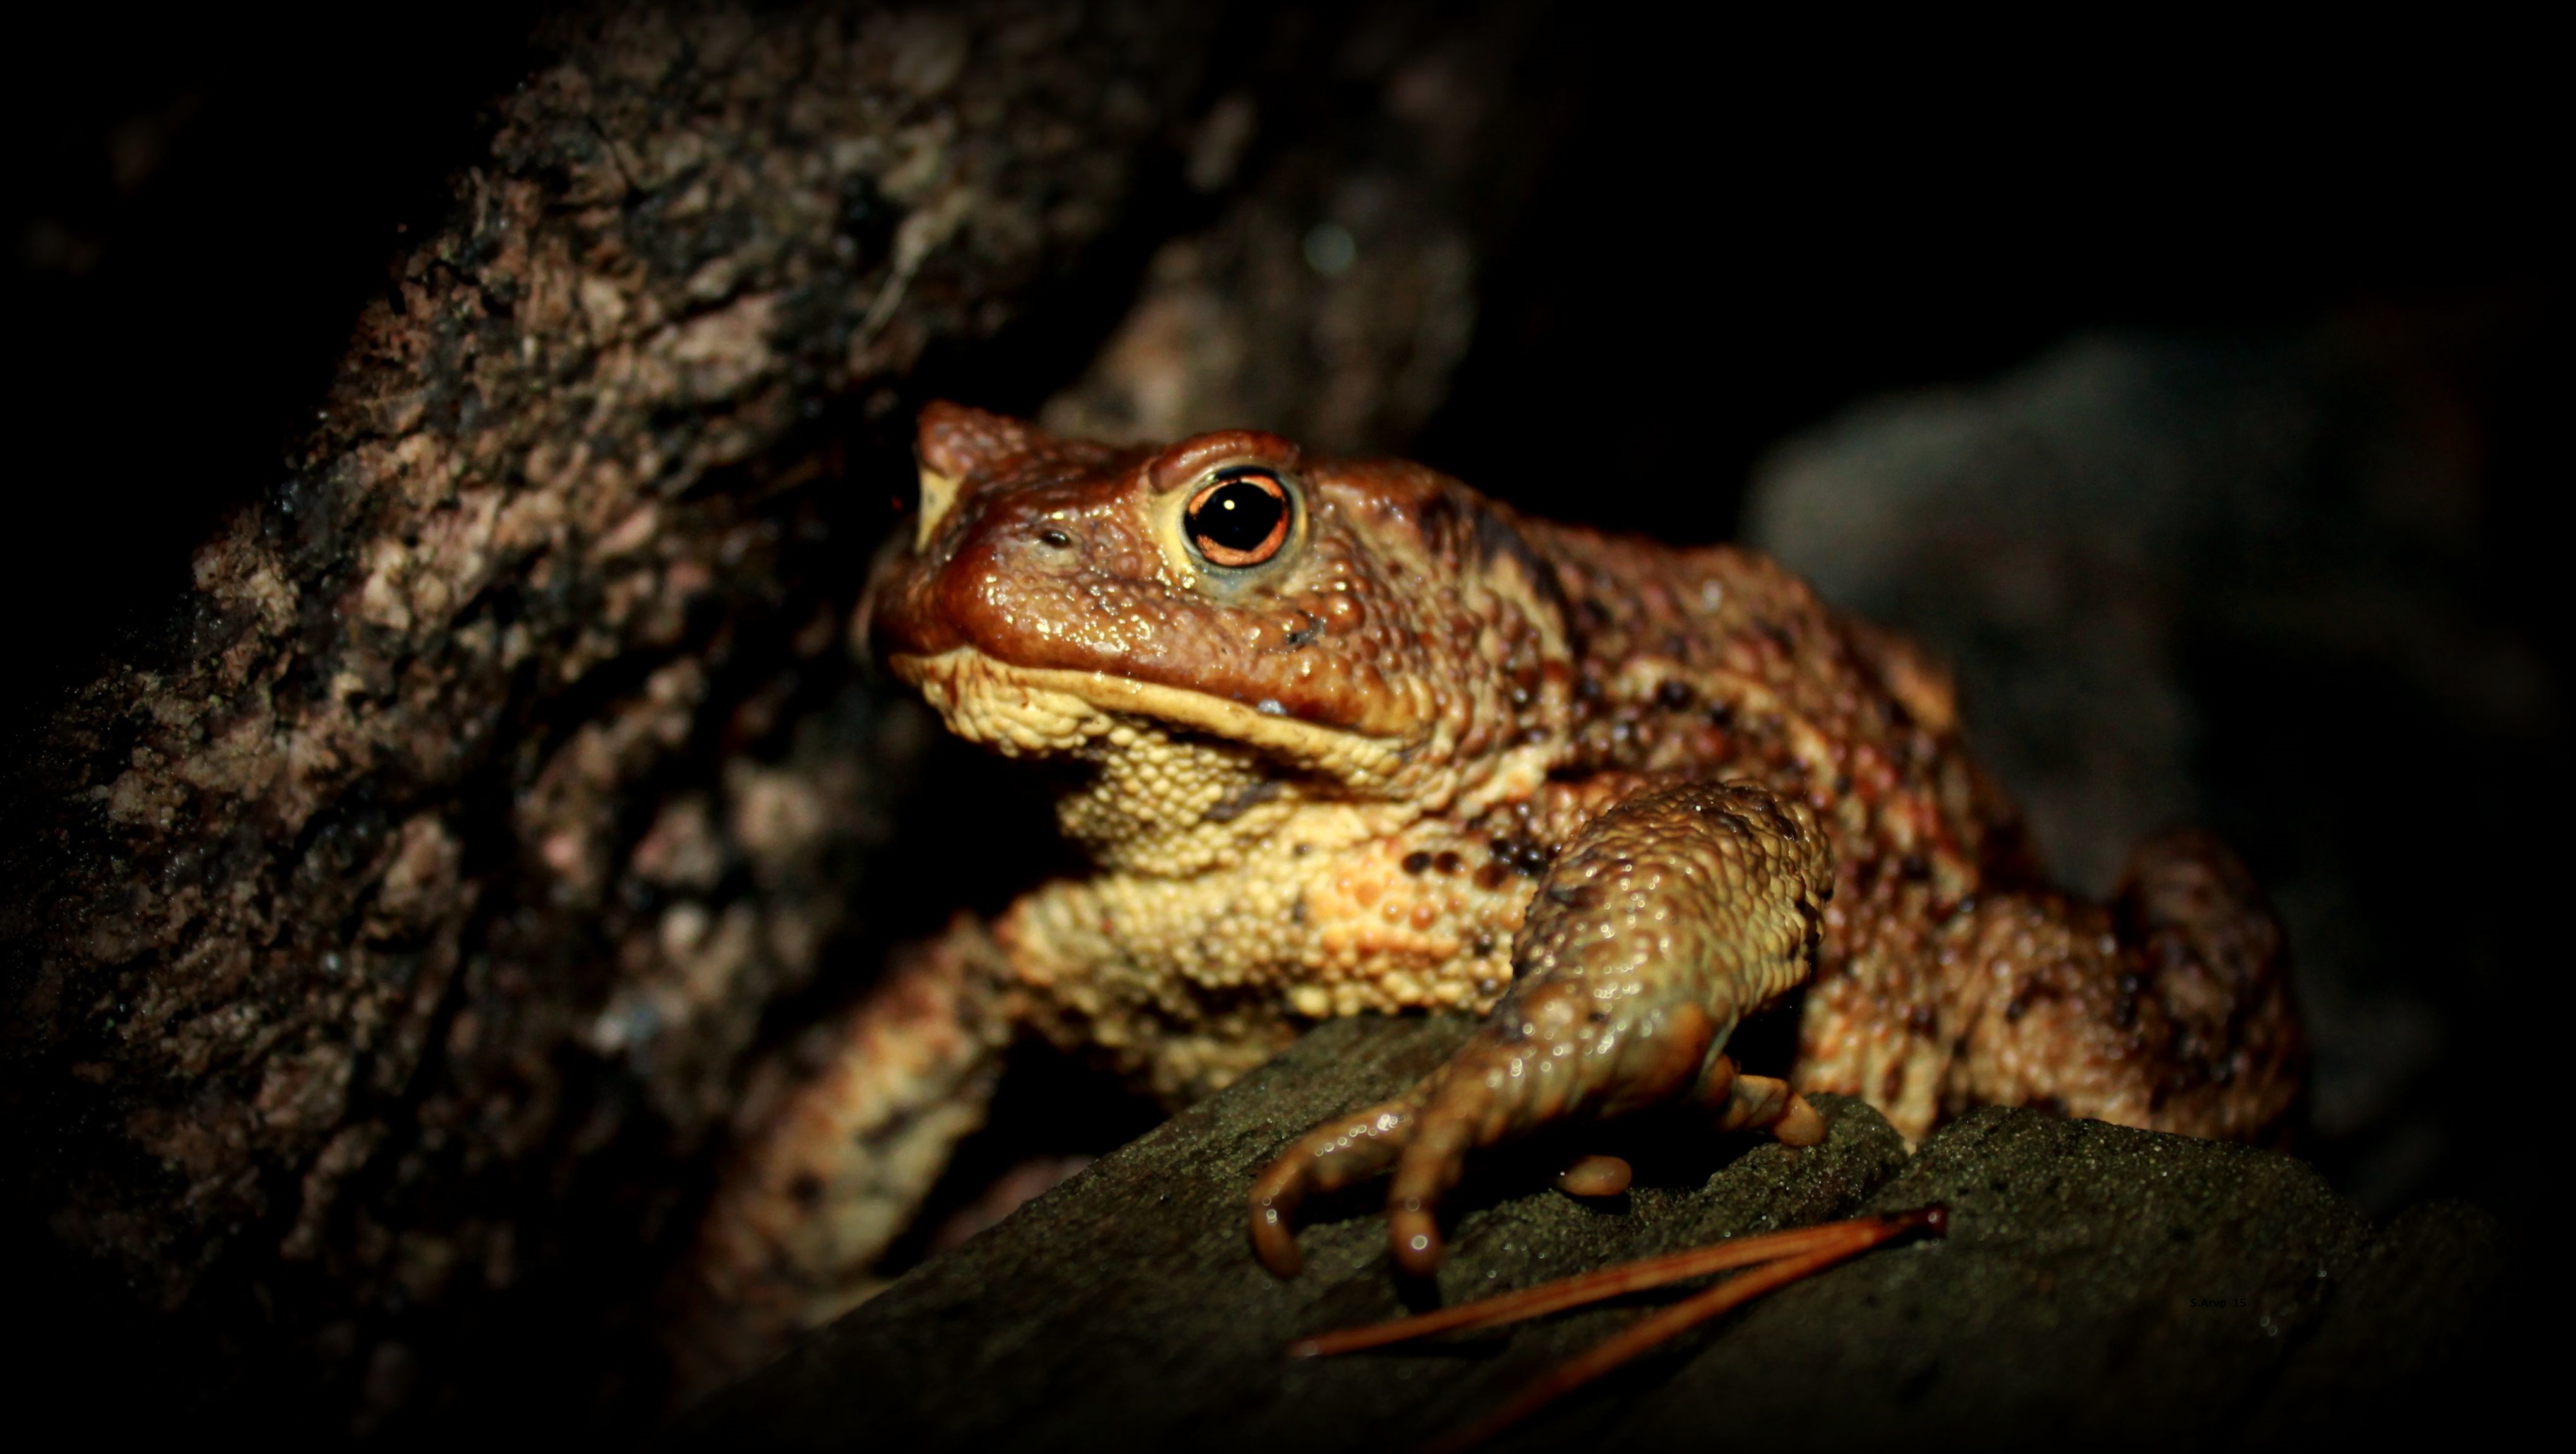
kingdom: Animalia
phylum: Chordata
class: Amphibia
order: Anura
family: Bufonidae
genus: Bufo
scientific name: Bufo bufo
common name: Common toad
